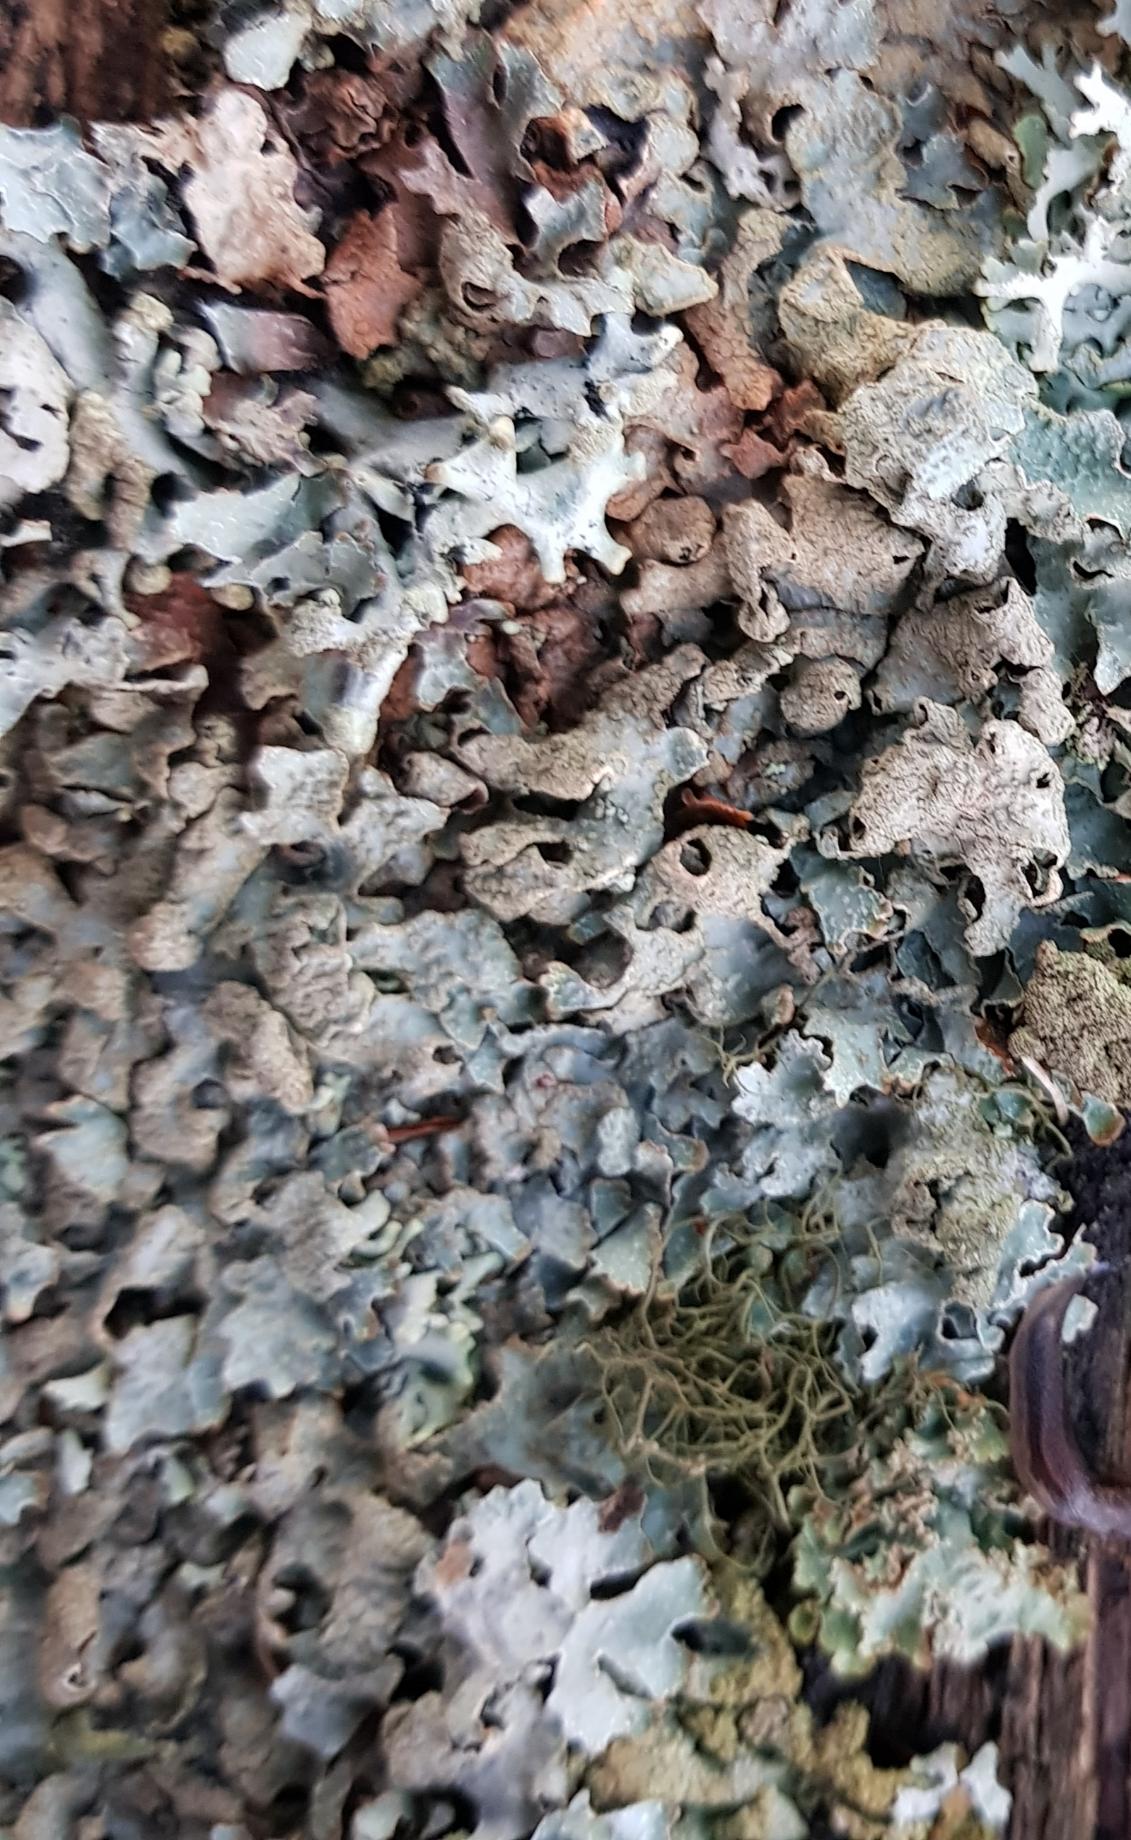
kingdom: Fungi
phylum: Ascomycota
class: Lecanoromycetes
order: Lecanorales
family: Parmeliaceae
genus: Parmelia
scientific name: Parmelia sulcata
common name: Rynket skållav
